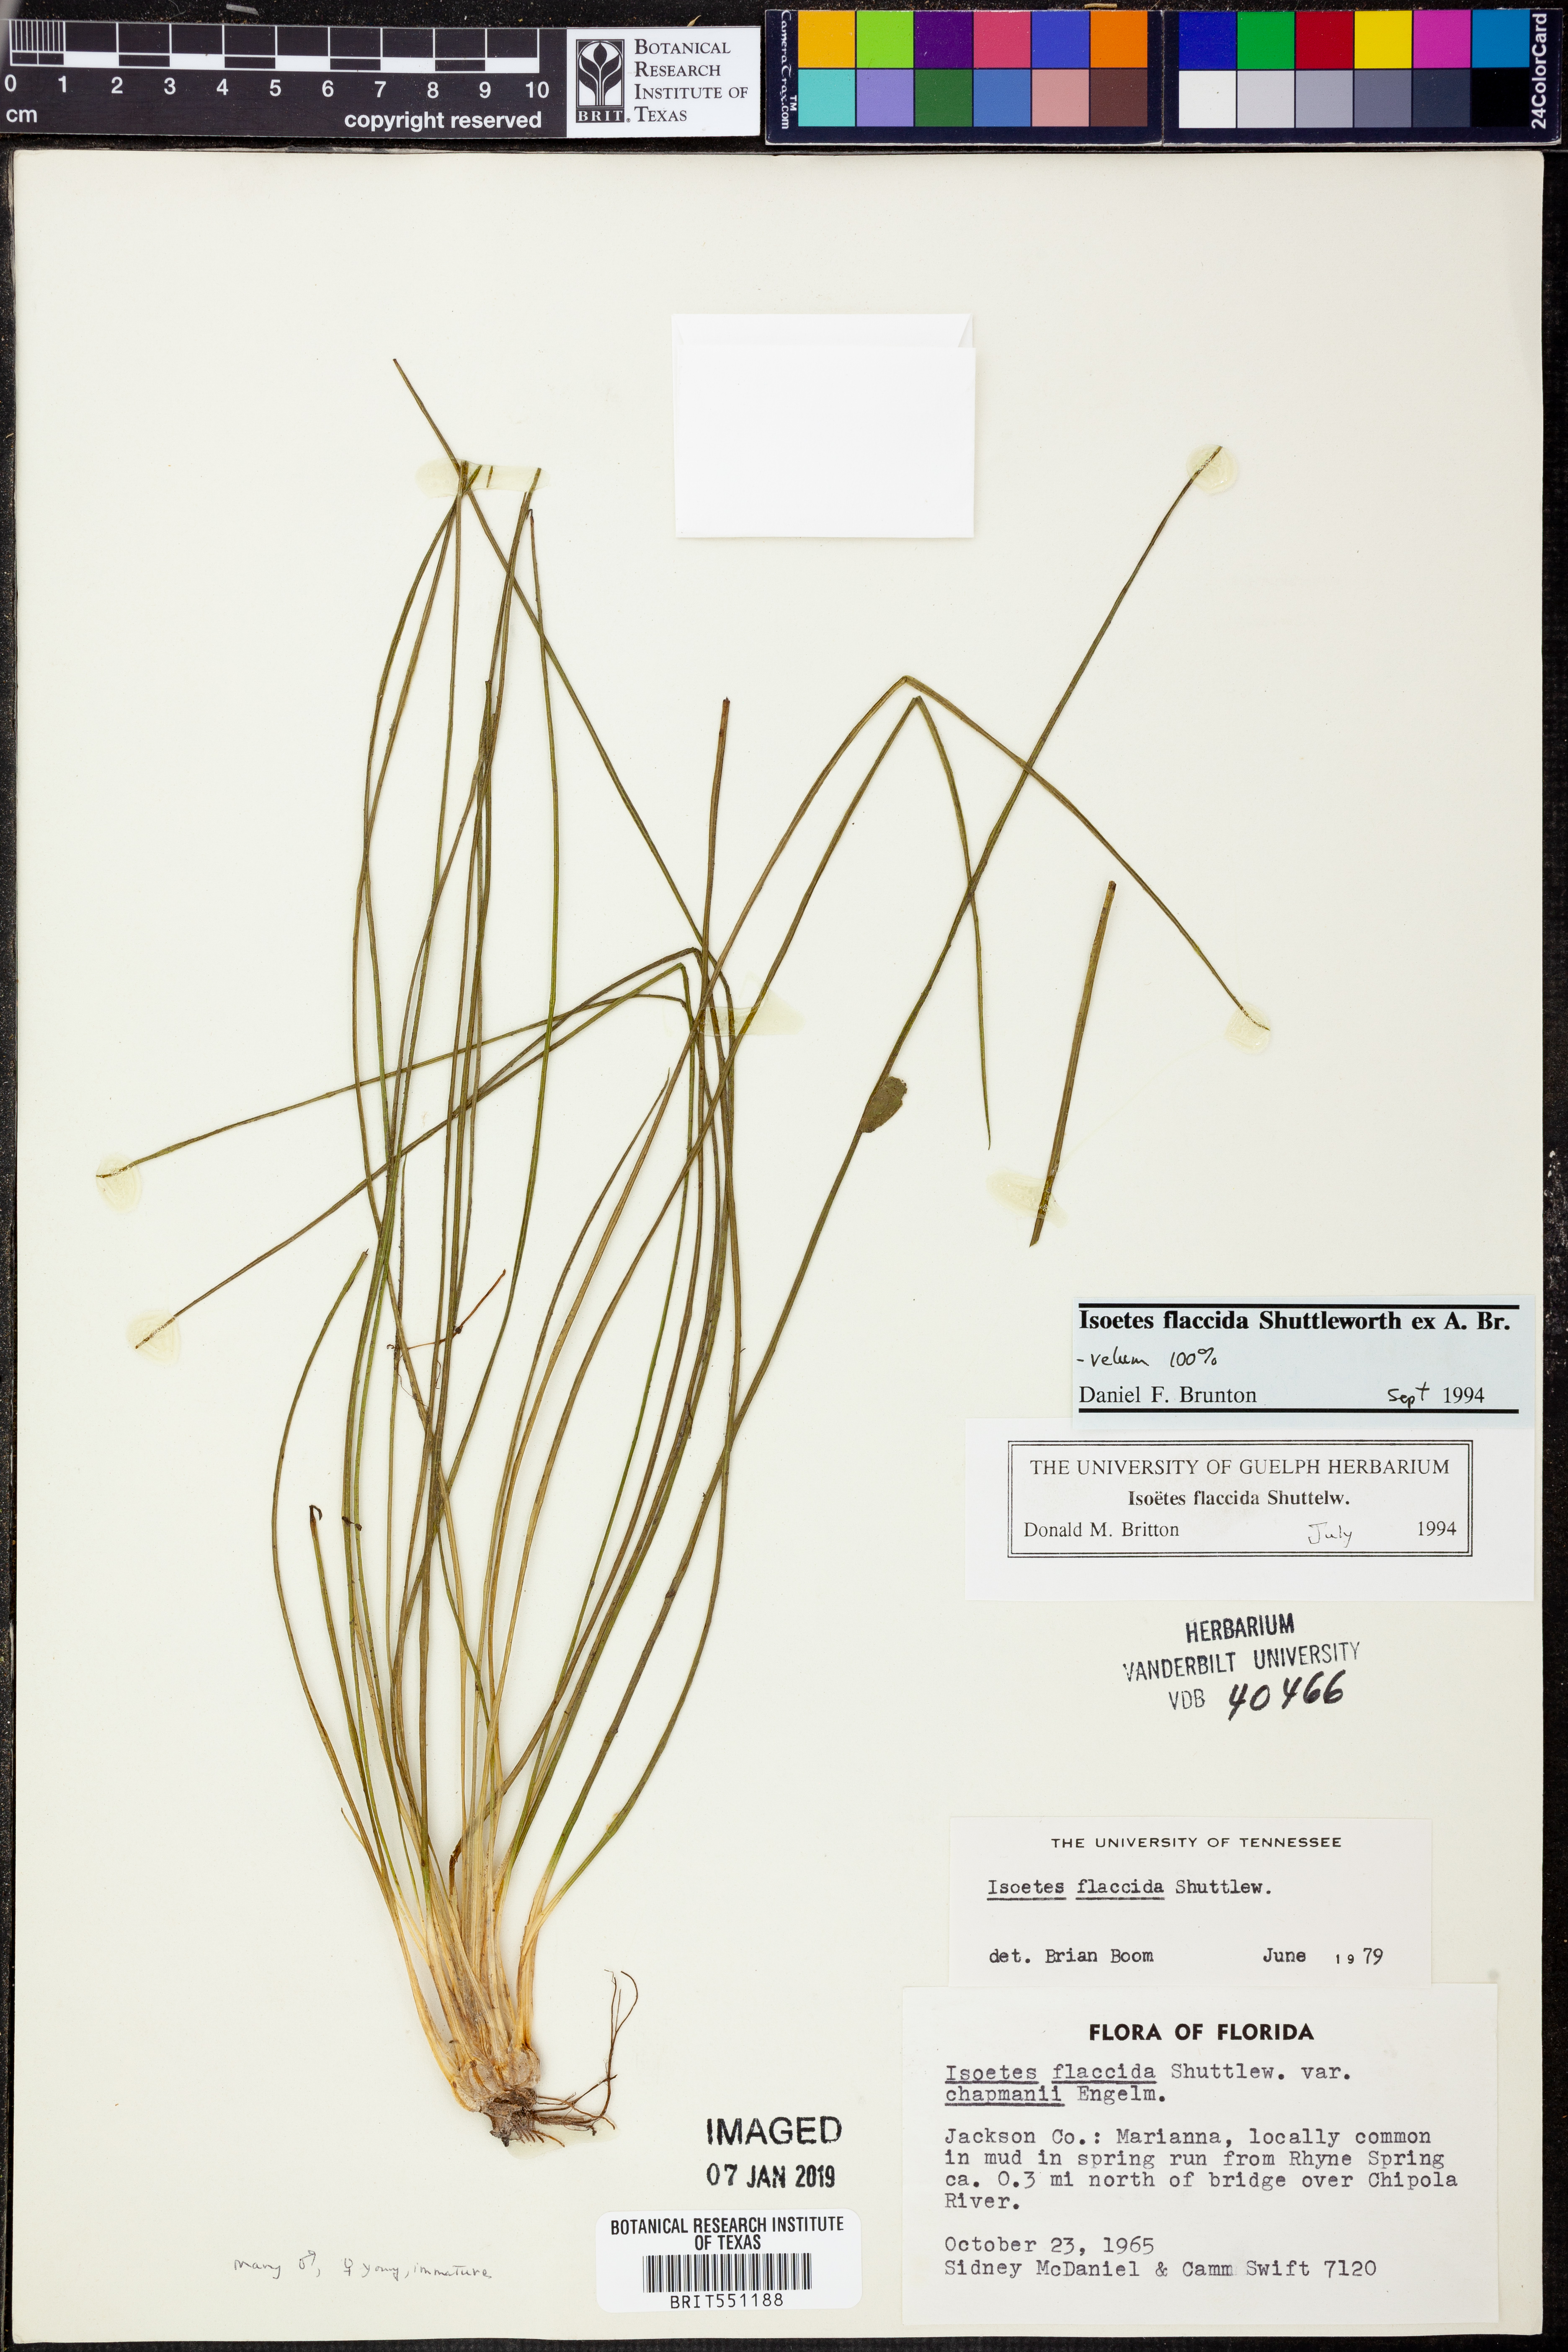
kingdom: Plantae
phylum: Tracheophyta
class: Lycopodiopsida
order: Isoetales
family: Isoetaceae
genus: Isoetes
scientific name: Isoetes flaccida
